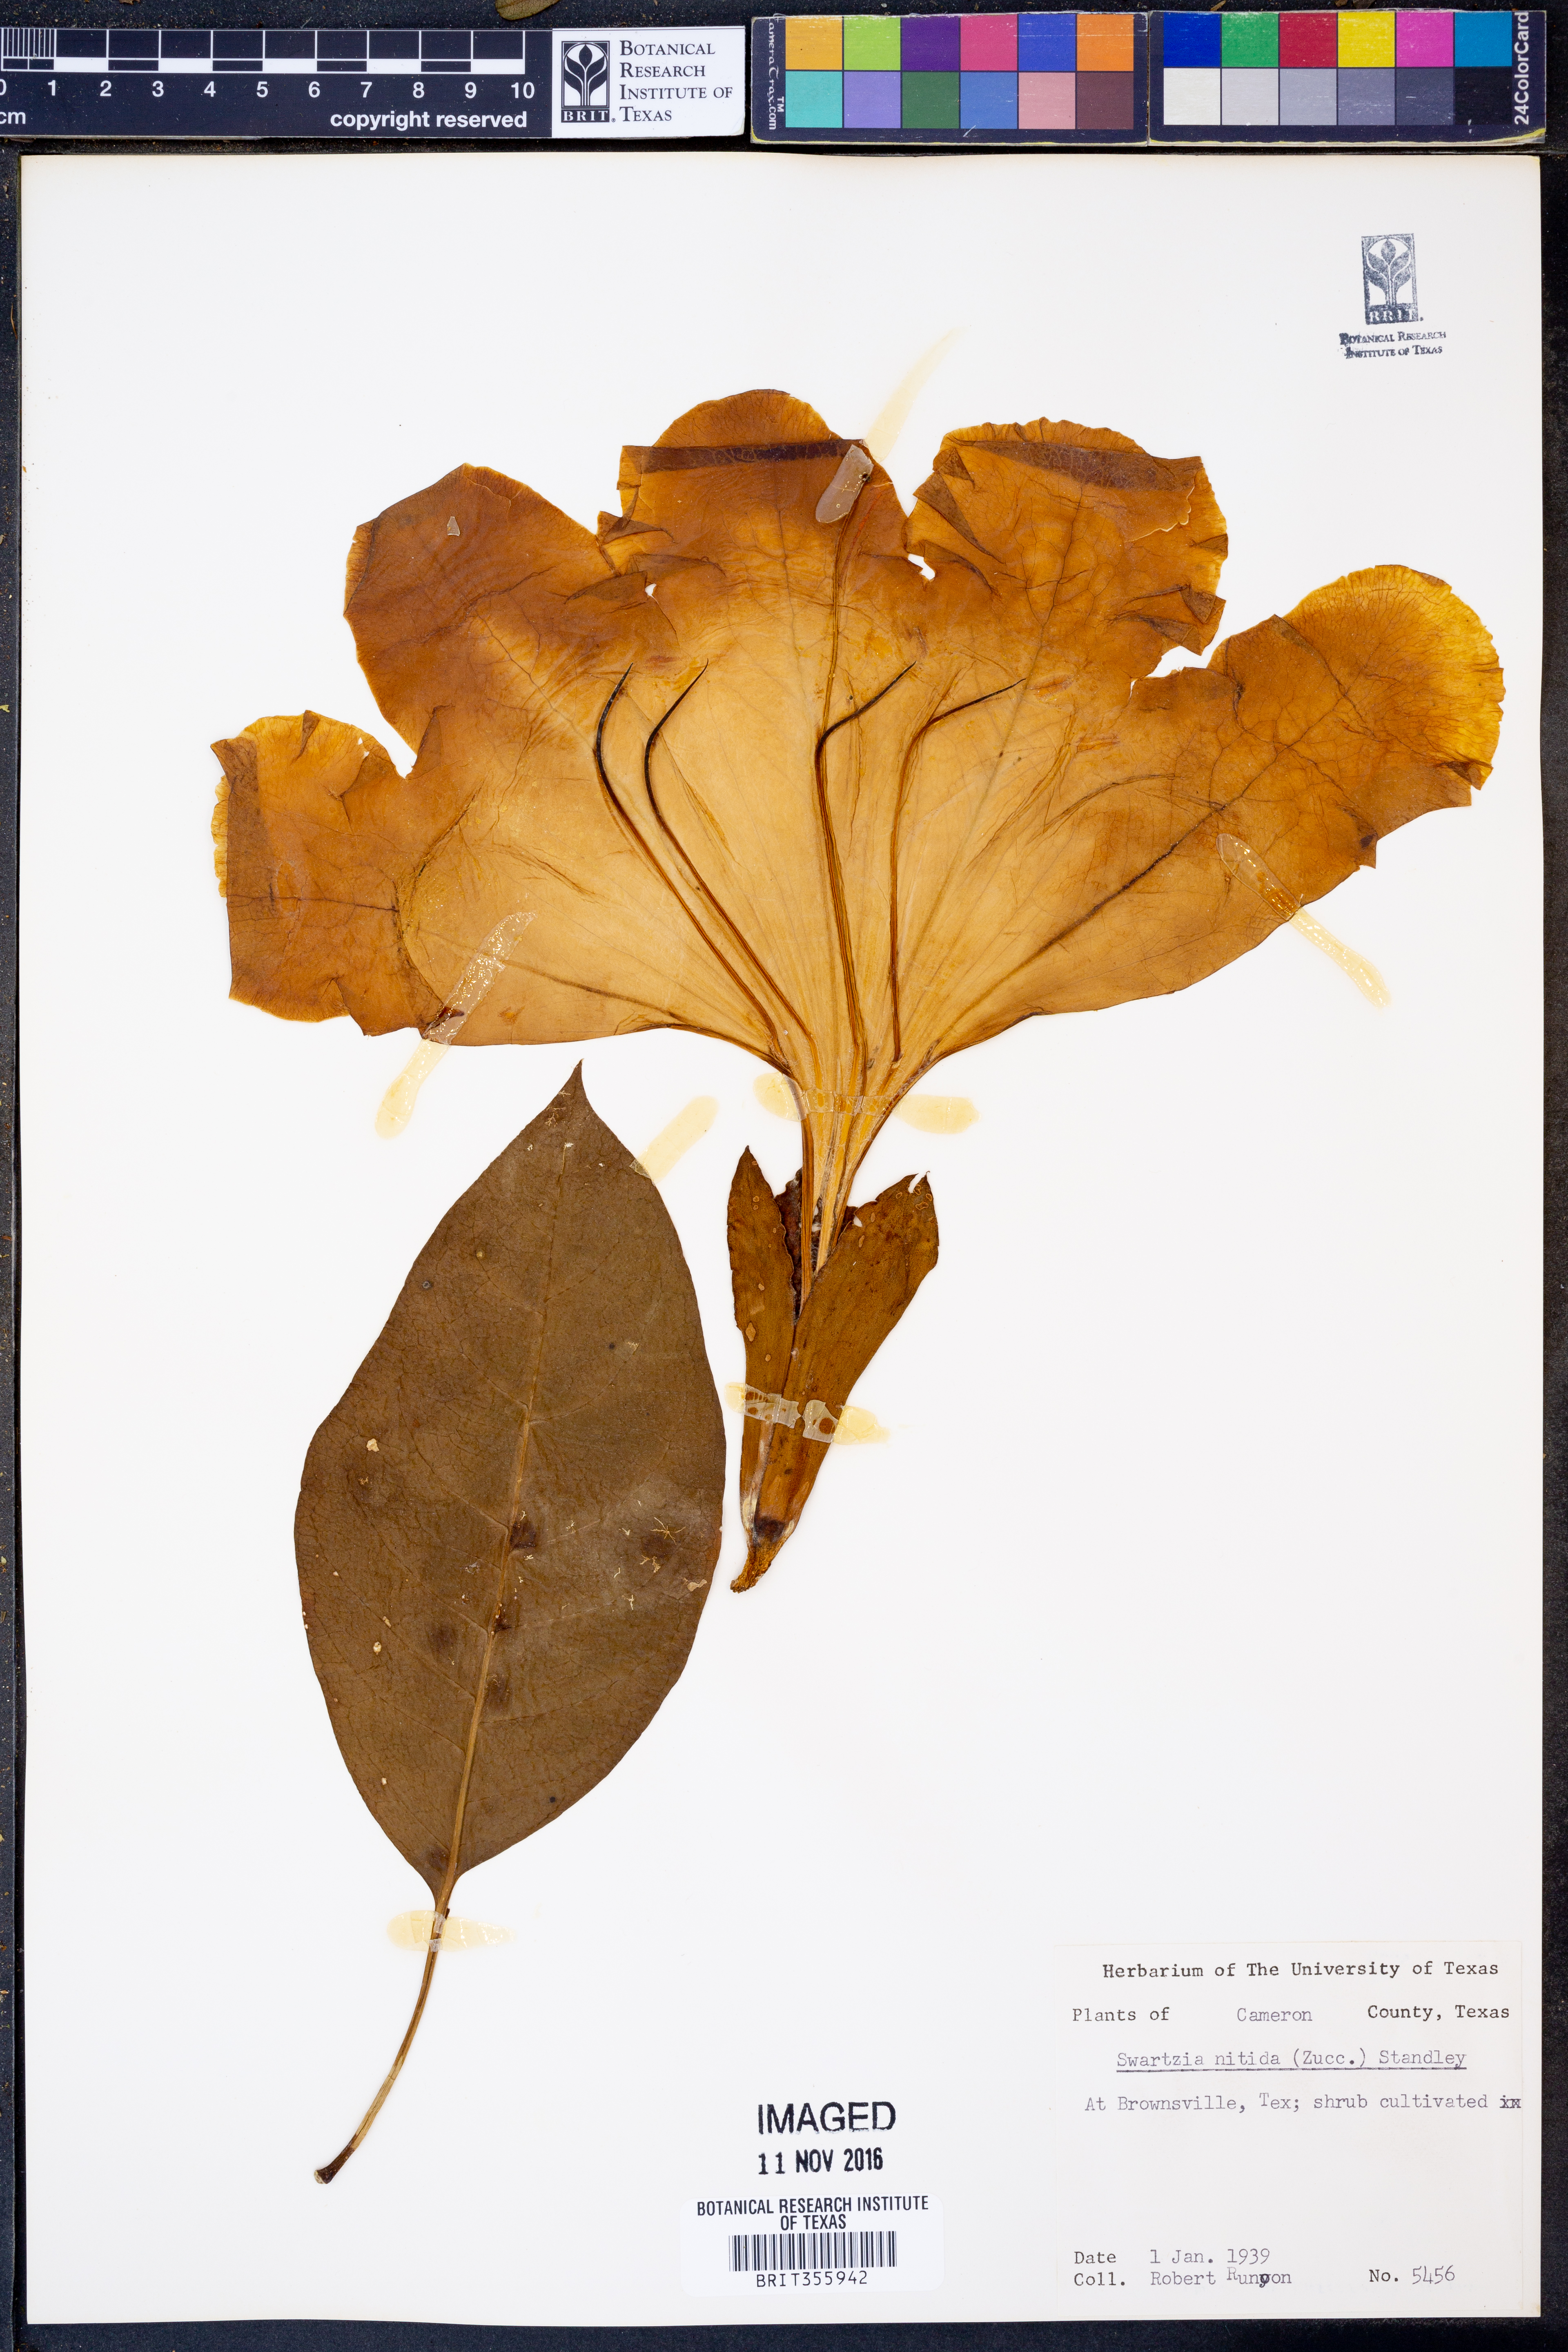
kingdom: Plantae
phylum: Tracheophyta
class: Magnoliopsida
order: Solanales
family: Solanaceae
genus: Solandra
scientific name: Solandra grandiflora
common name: Showy chalicevine
